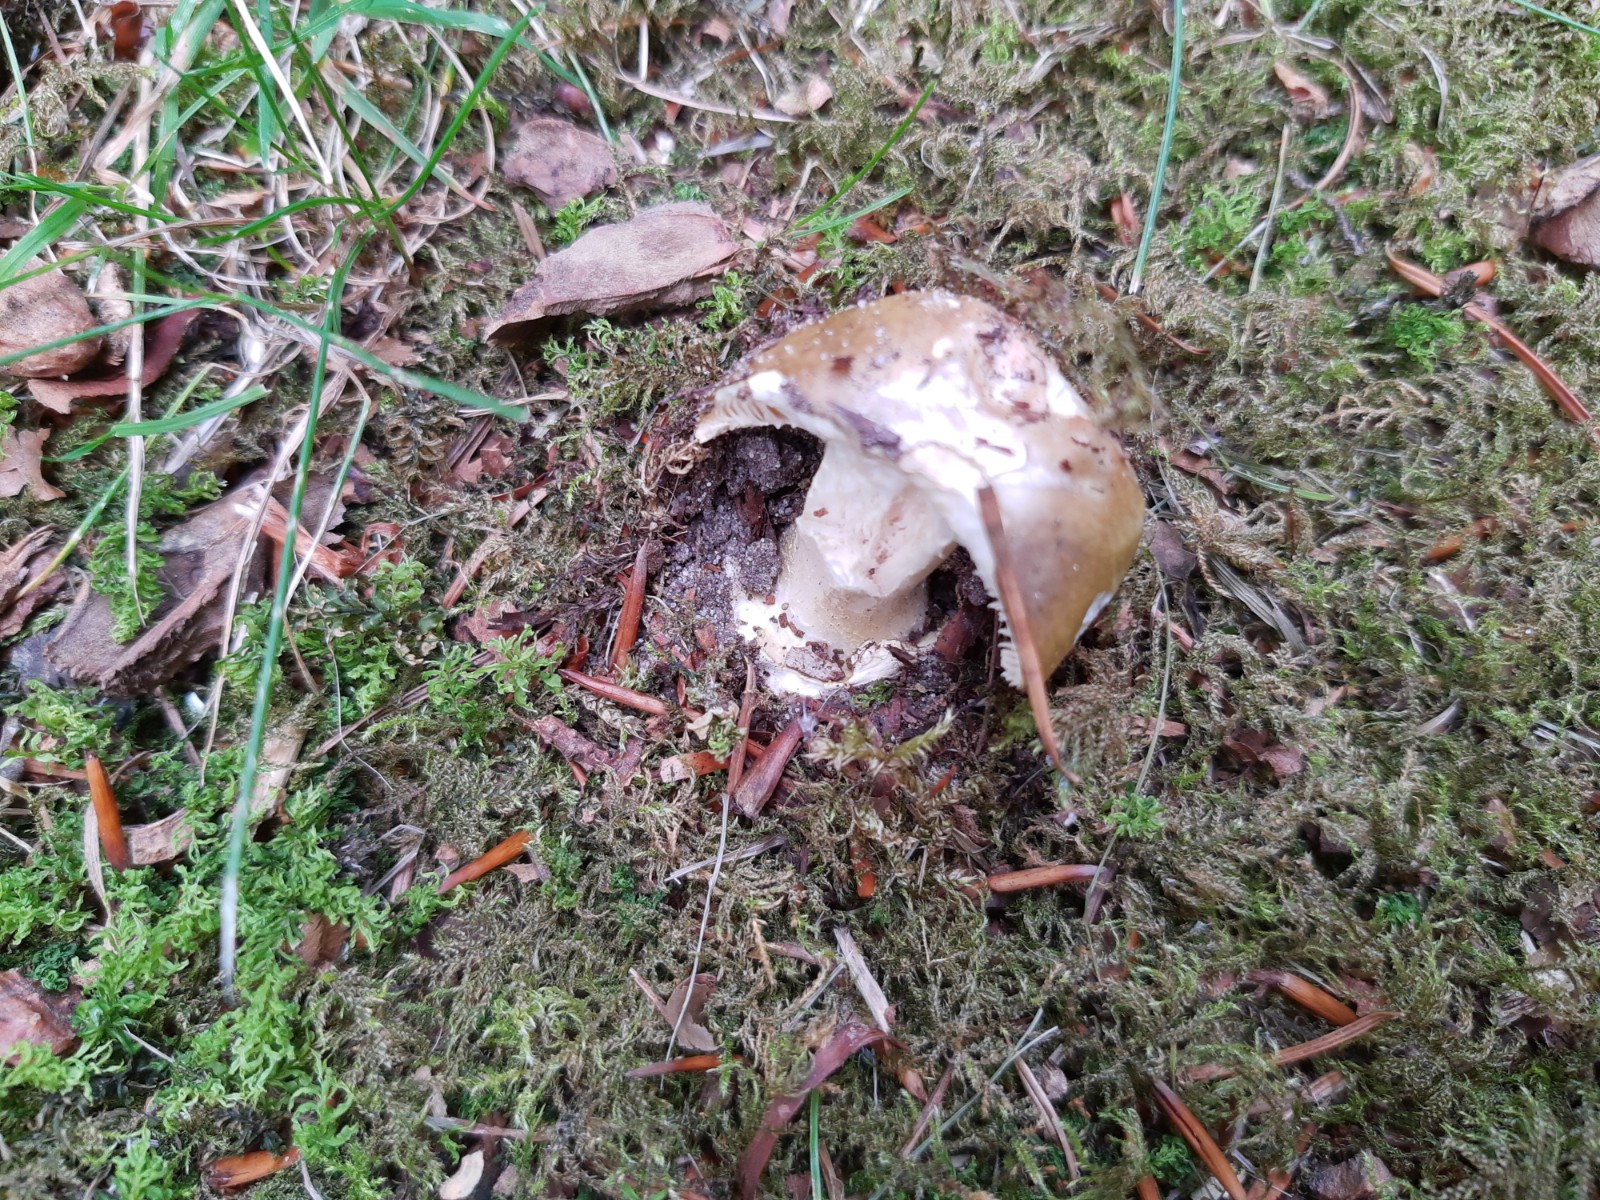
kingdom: Fungi
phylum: Basidiomycota
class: Agaricomycetes
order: Agaricales
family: Amanitaceae
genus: Amanita
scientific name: Amanita phalloides
